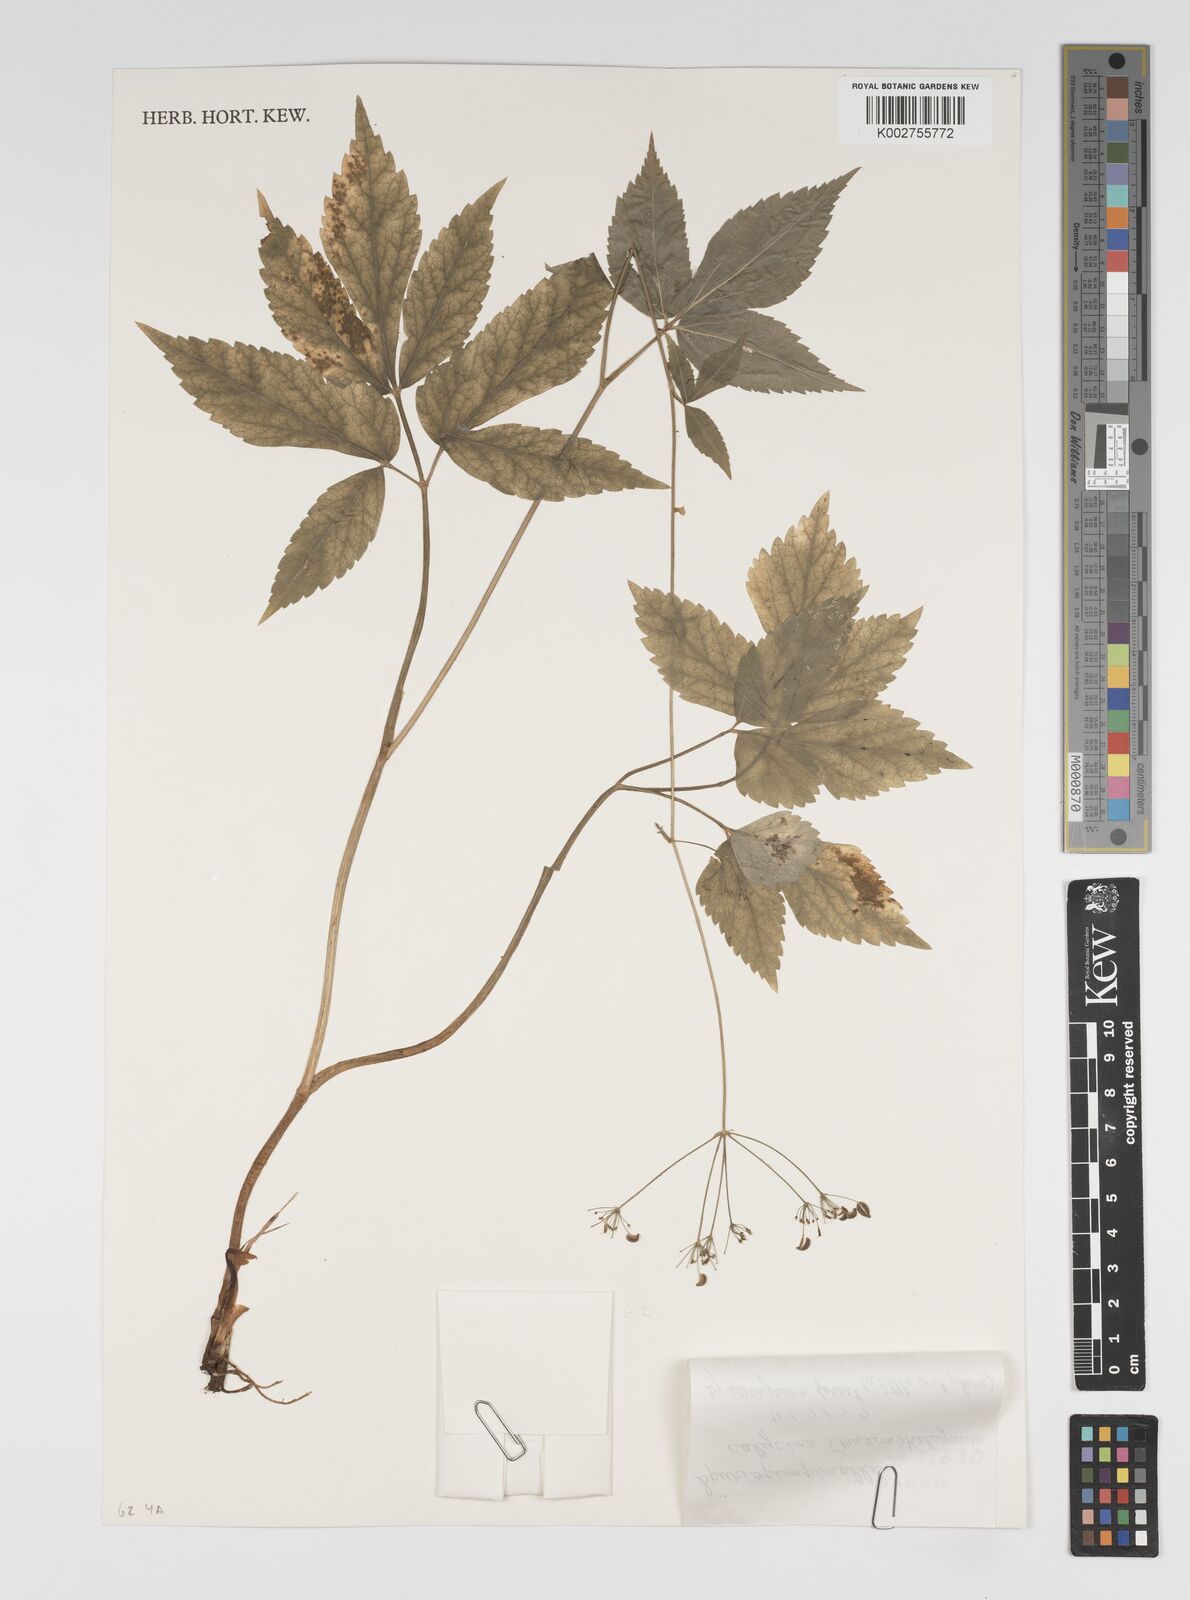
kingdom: Plantae
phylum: Tracheophyta
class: Magnoliopsida
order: Apiales
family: Apiaceae
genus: Spuriopimpinella
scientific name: Spuriopimpinella calycina
